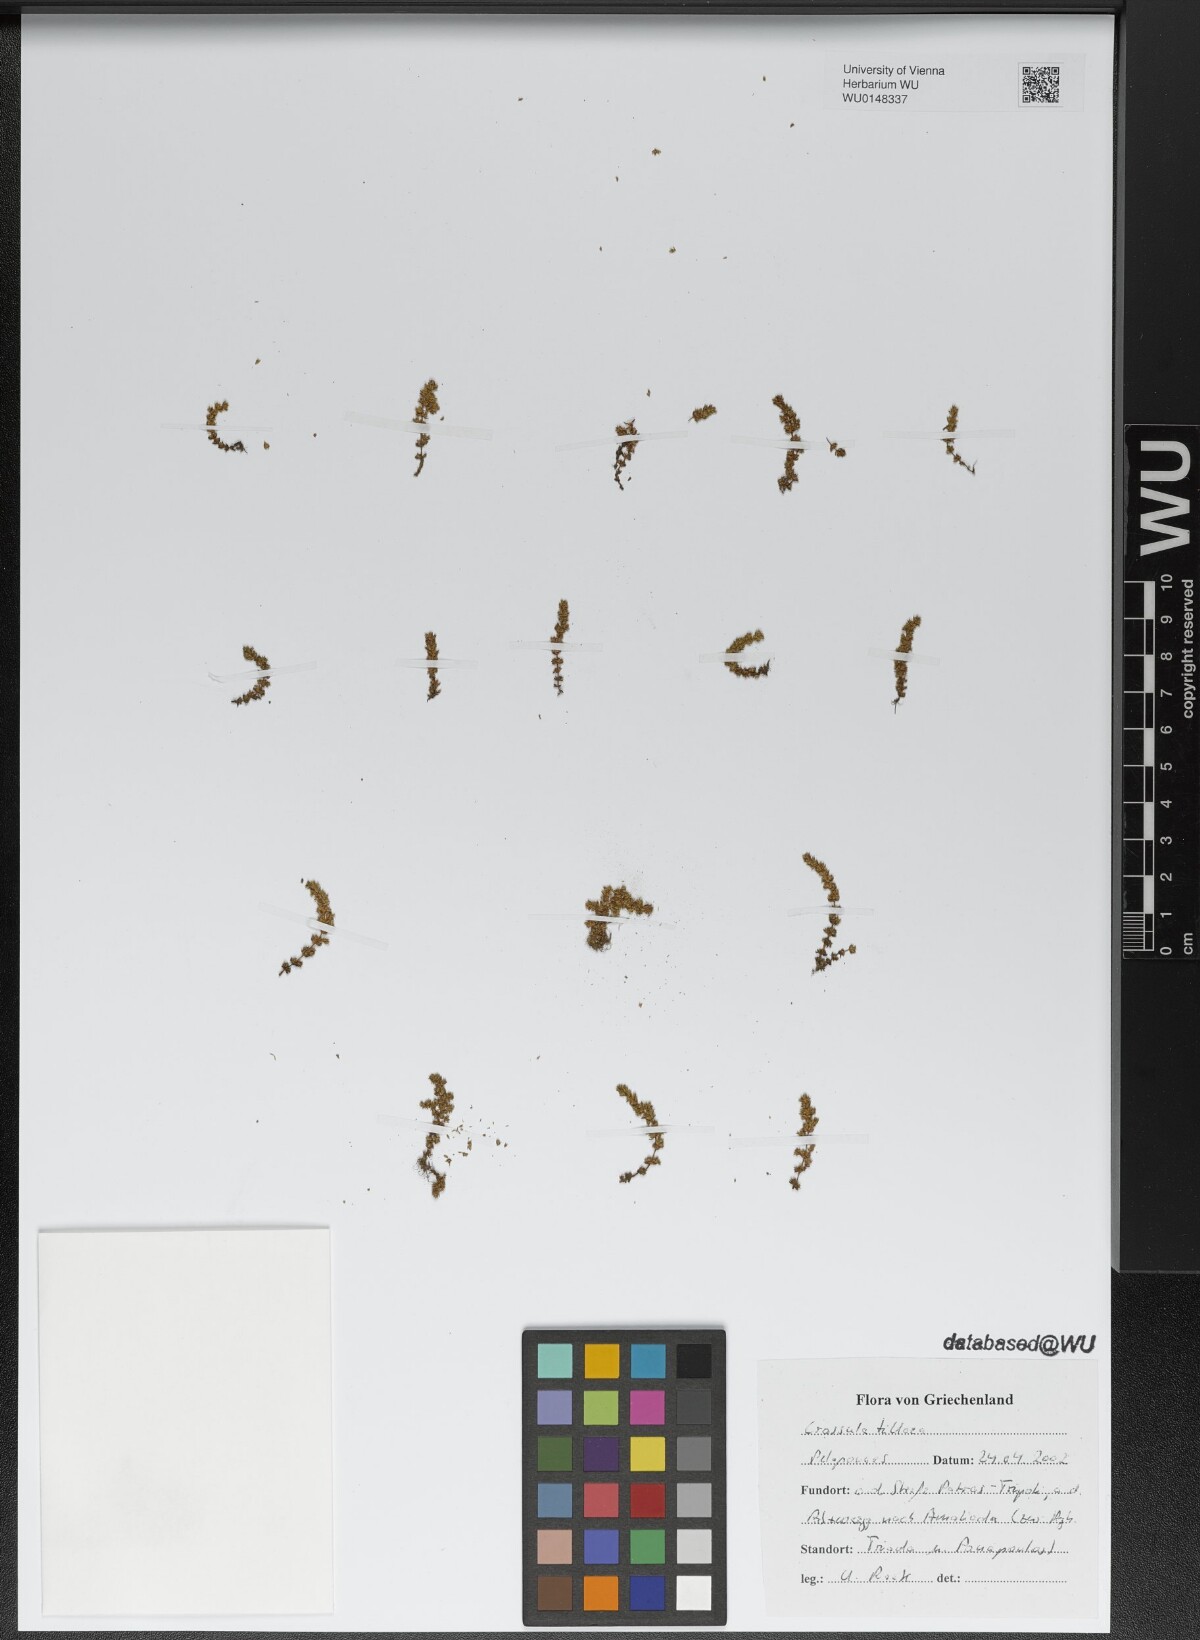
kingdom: Plantae
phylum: Tracheophyta
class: Magnoliopsida
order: Saxifragales
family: Crassulaceae
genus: Crassula
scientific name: Crassula tillaea
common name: Mossy stonecrop
